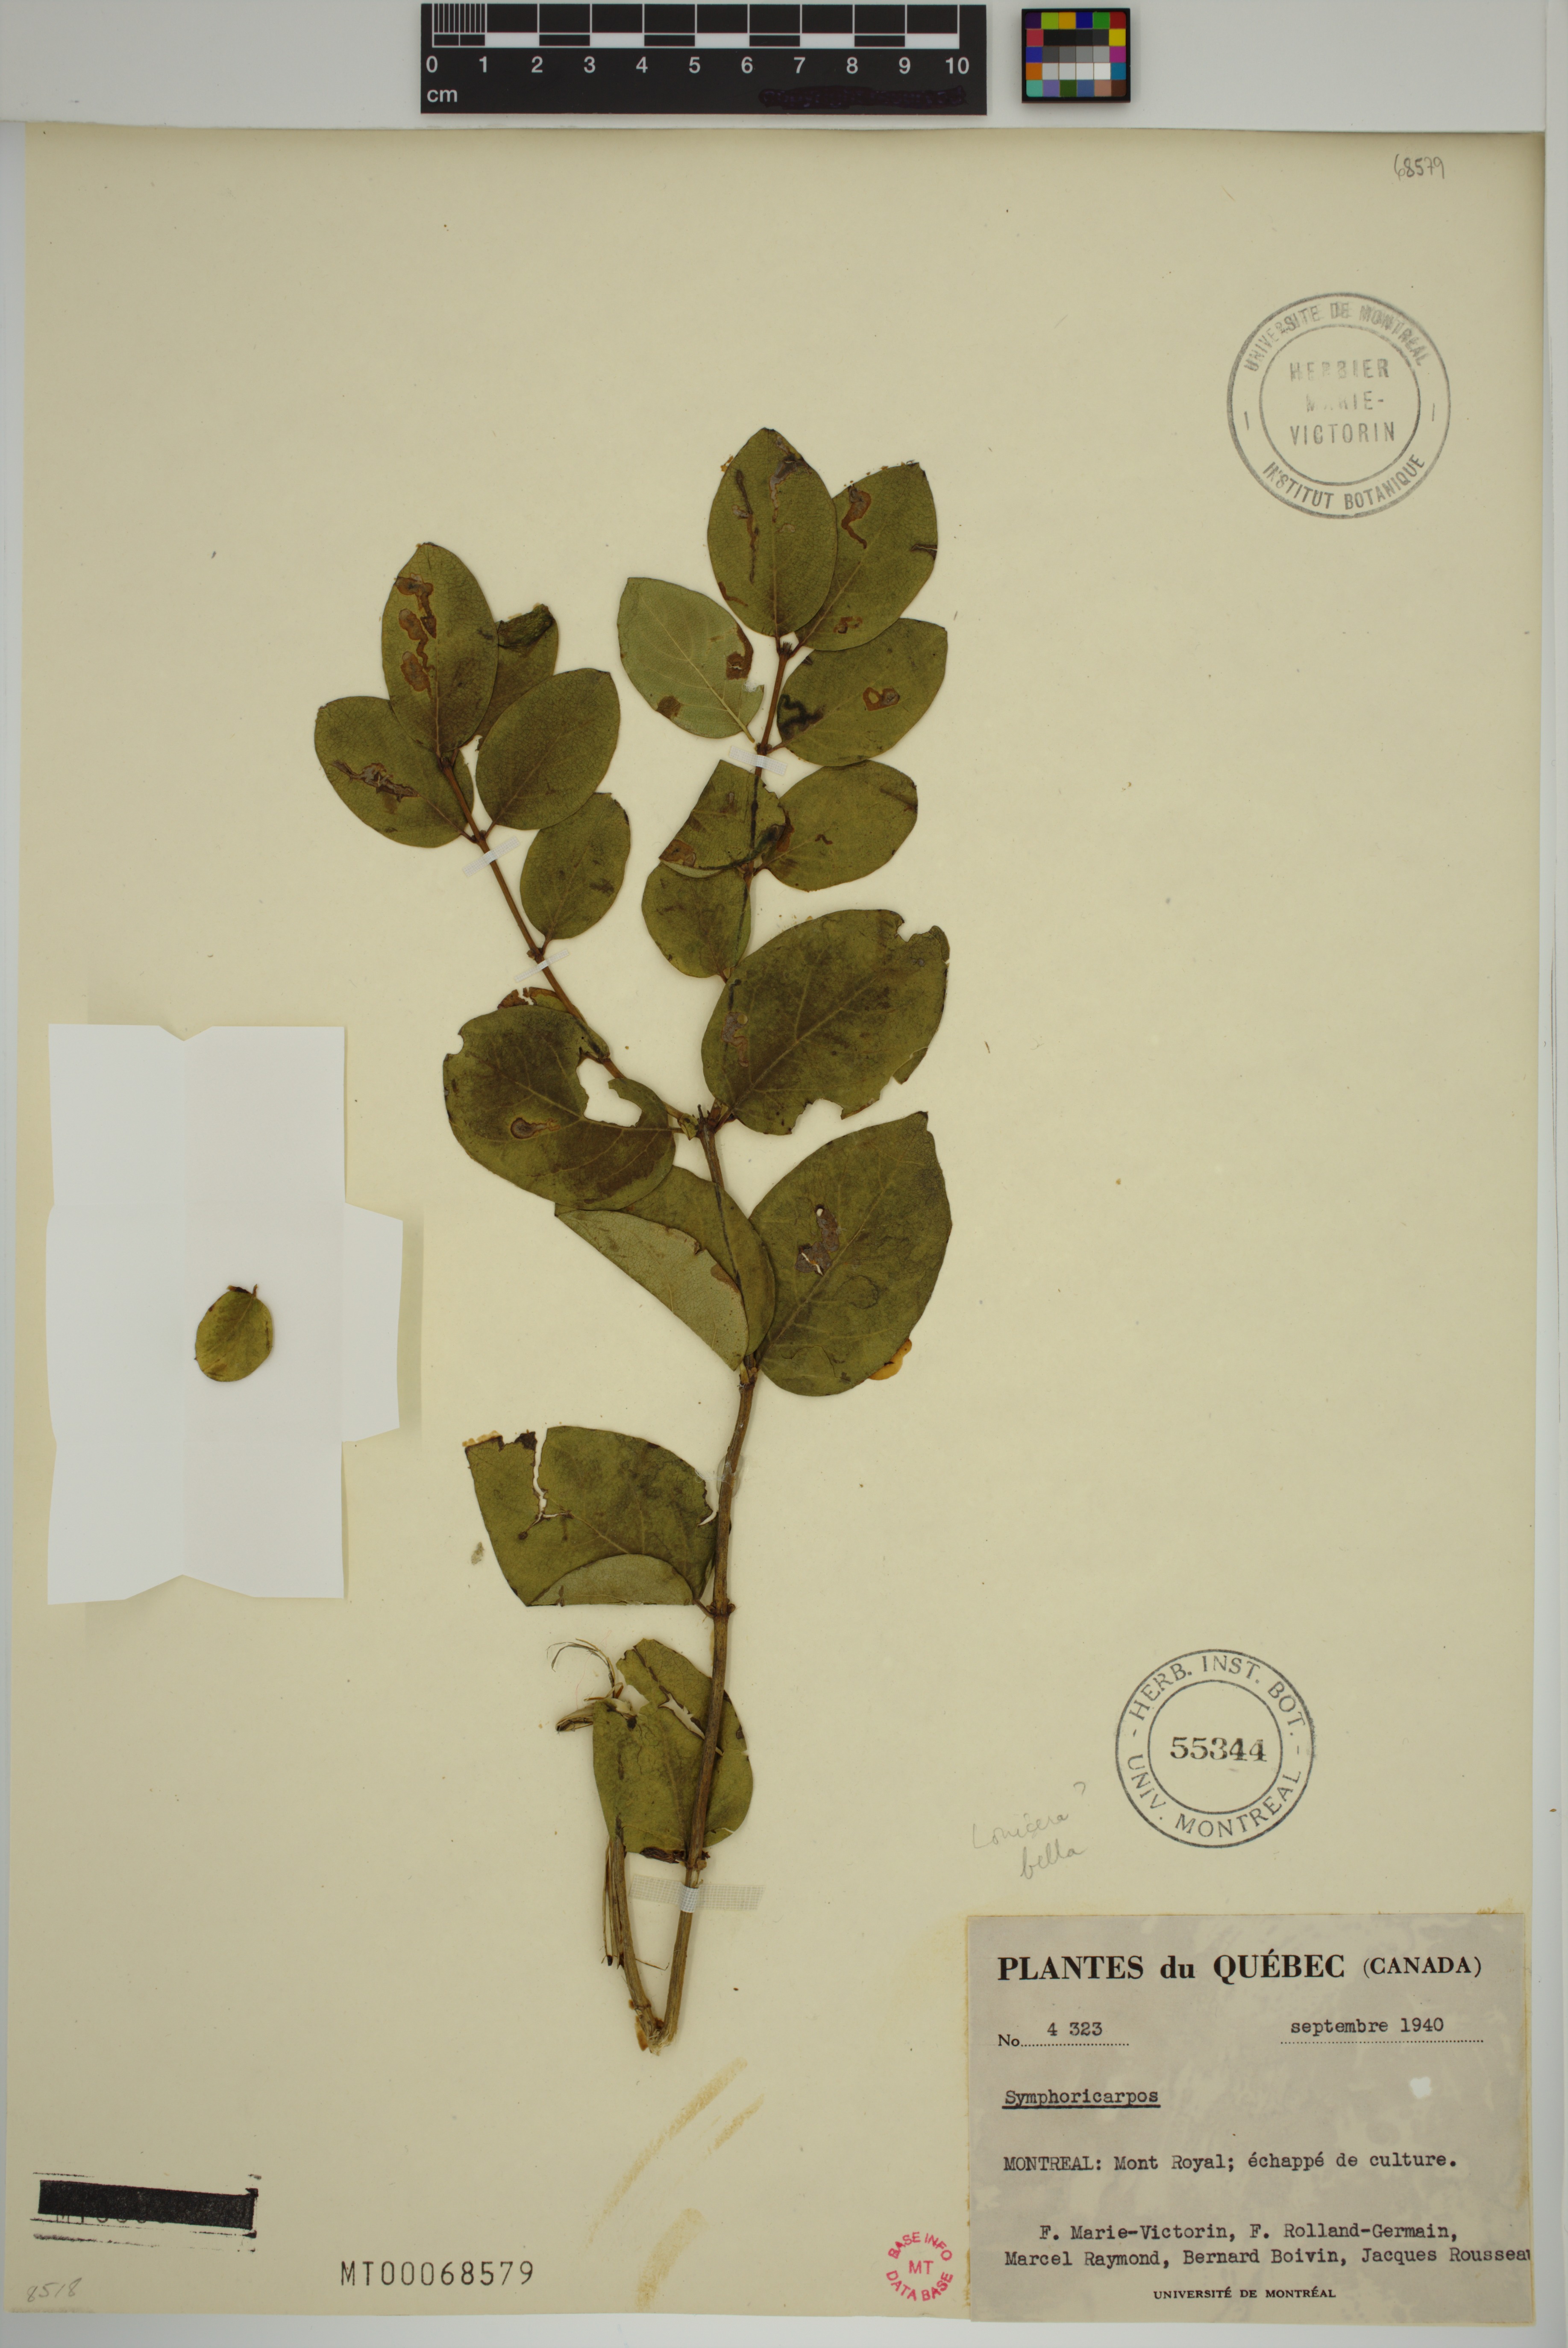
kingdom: Plantae
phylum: Tracheophyta
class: Magnoliopsida
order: Dipsacales
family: Caprifoliaceae
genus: Lonicera
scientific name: Lonicera tatarica
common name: Tatarian honeysuckle
